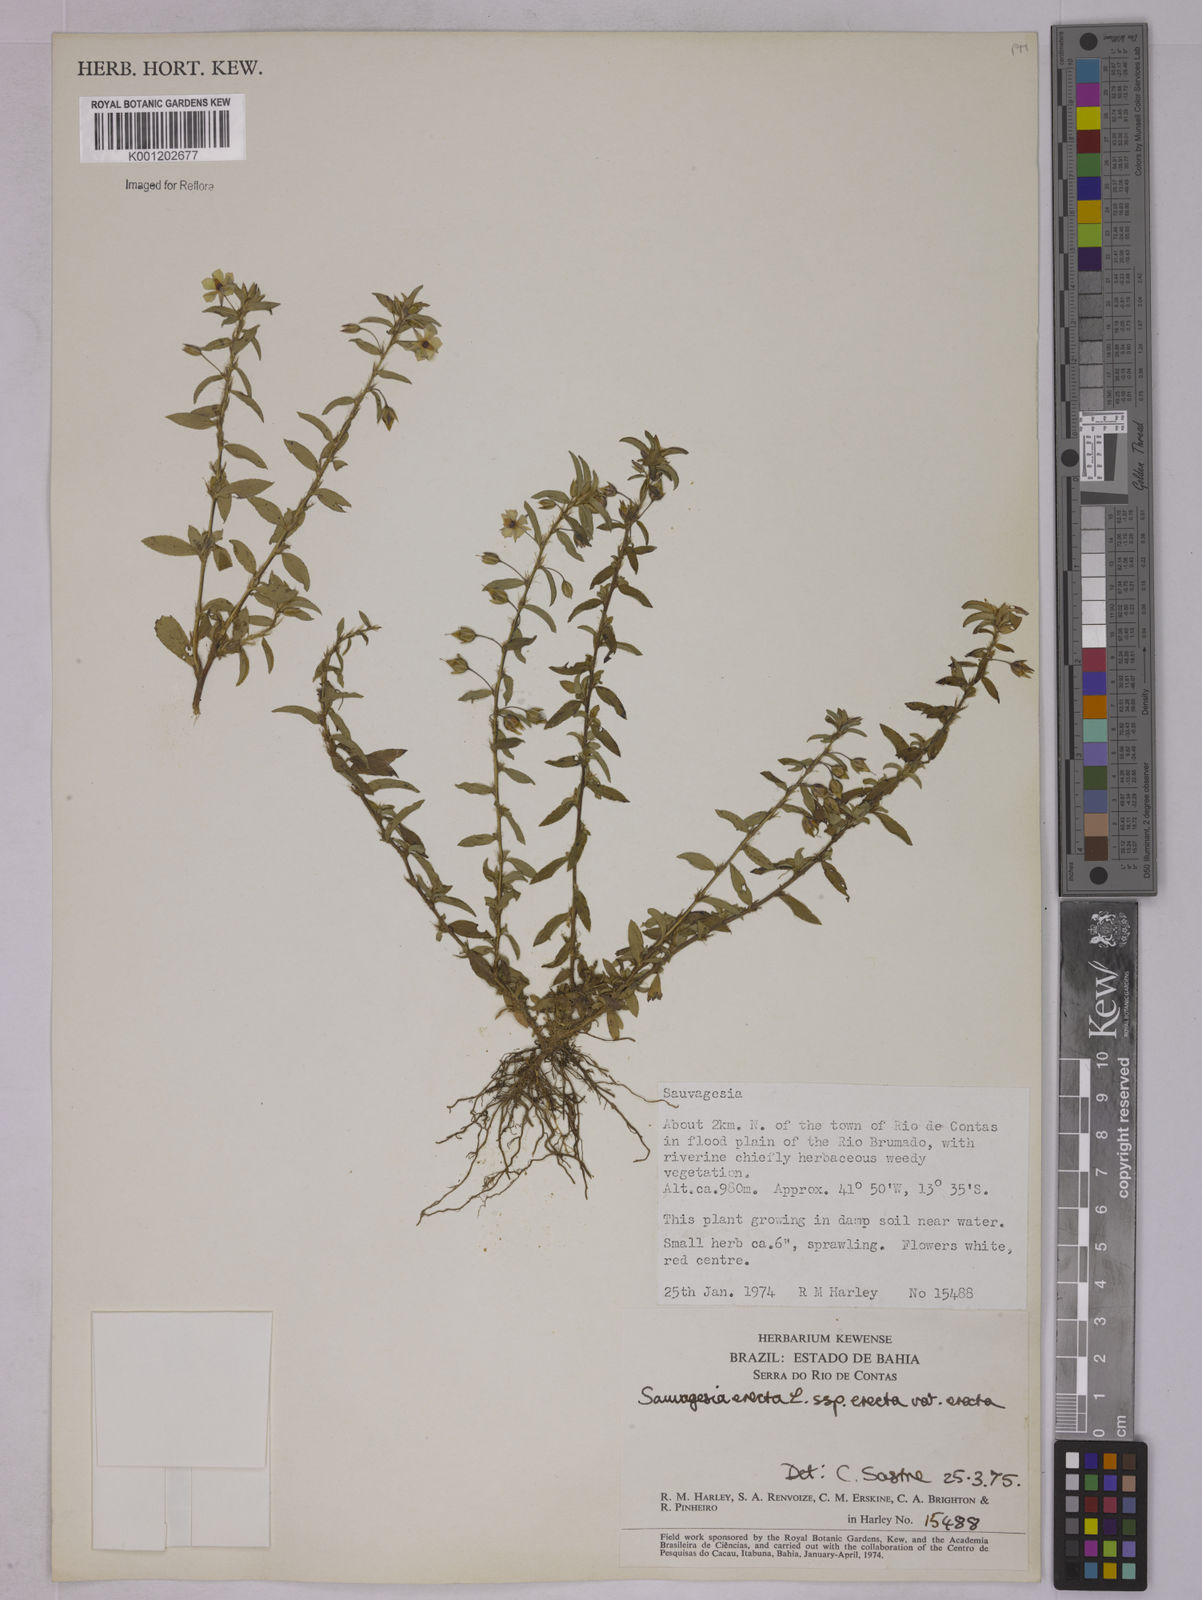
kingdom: Plantae
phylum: Tracheophyta
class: Magnoliopsida
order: Malpighiales
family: Ochnaceae
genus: Sauvagesia
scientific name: Sauvagesia erecta
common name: Creole tea
